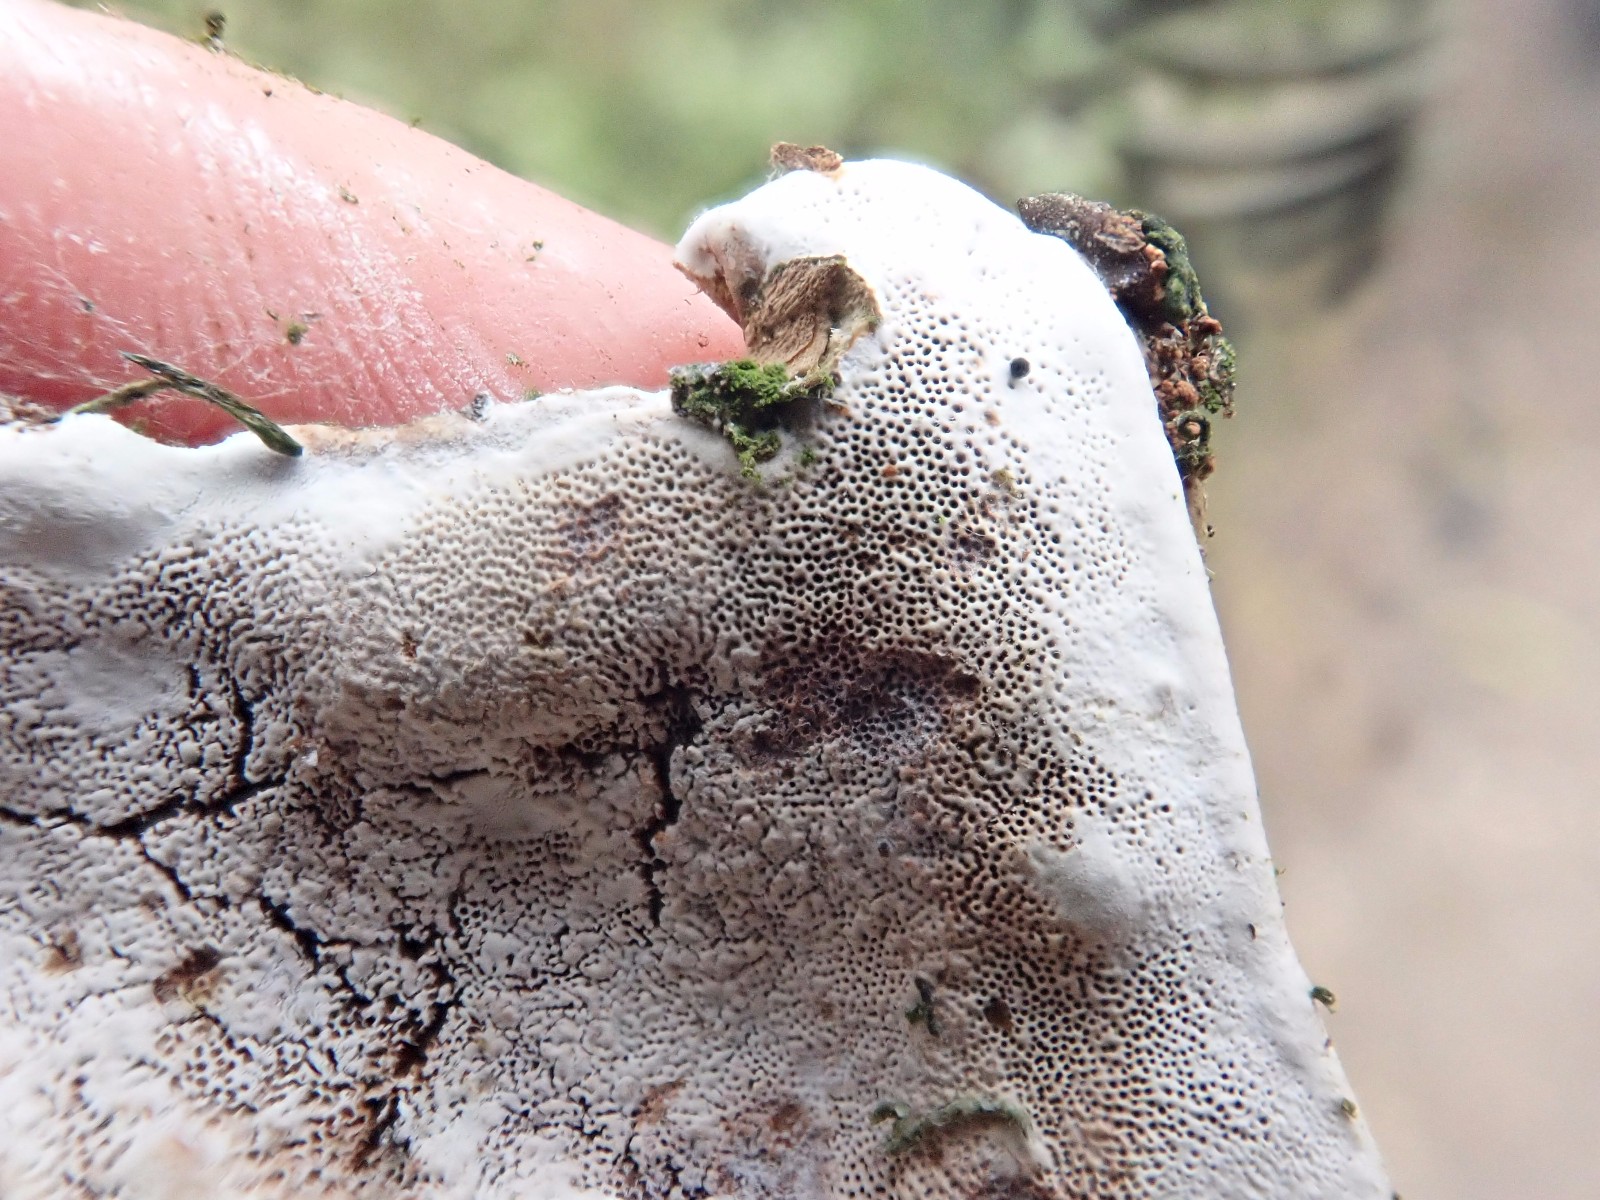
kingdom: Fungi
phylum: Basidiomycota
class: Agaricomycetes
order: Polyporales
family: Polyporaceae
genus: Ganoderma
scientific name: Ganoderma applanatum
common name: flad lakporesvamp
